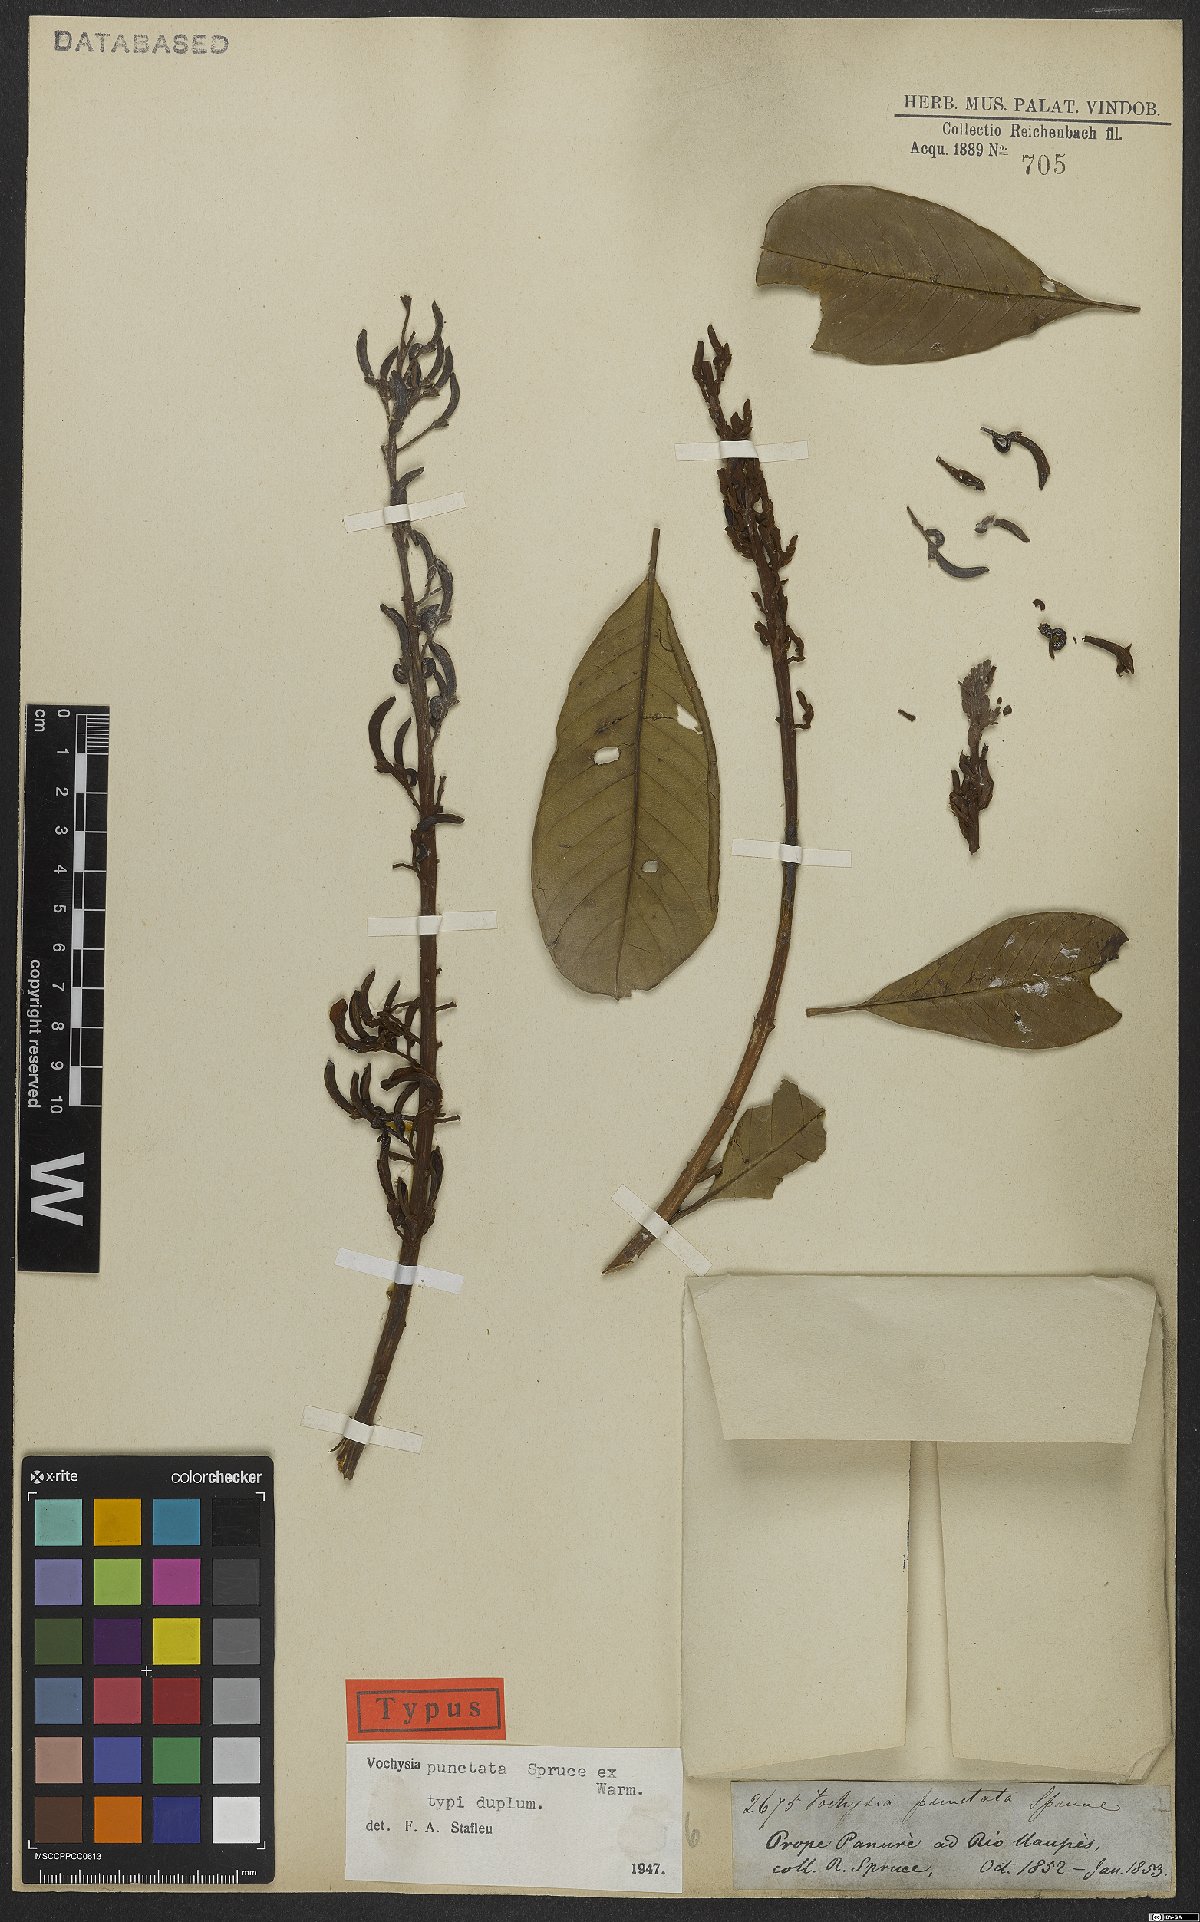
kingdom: Plantae
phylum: Tracheophyta
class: Magnoliopsida
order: Myrtales
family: Vochysiaceae
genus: Vochysia
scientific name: Vochysia punctata
